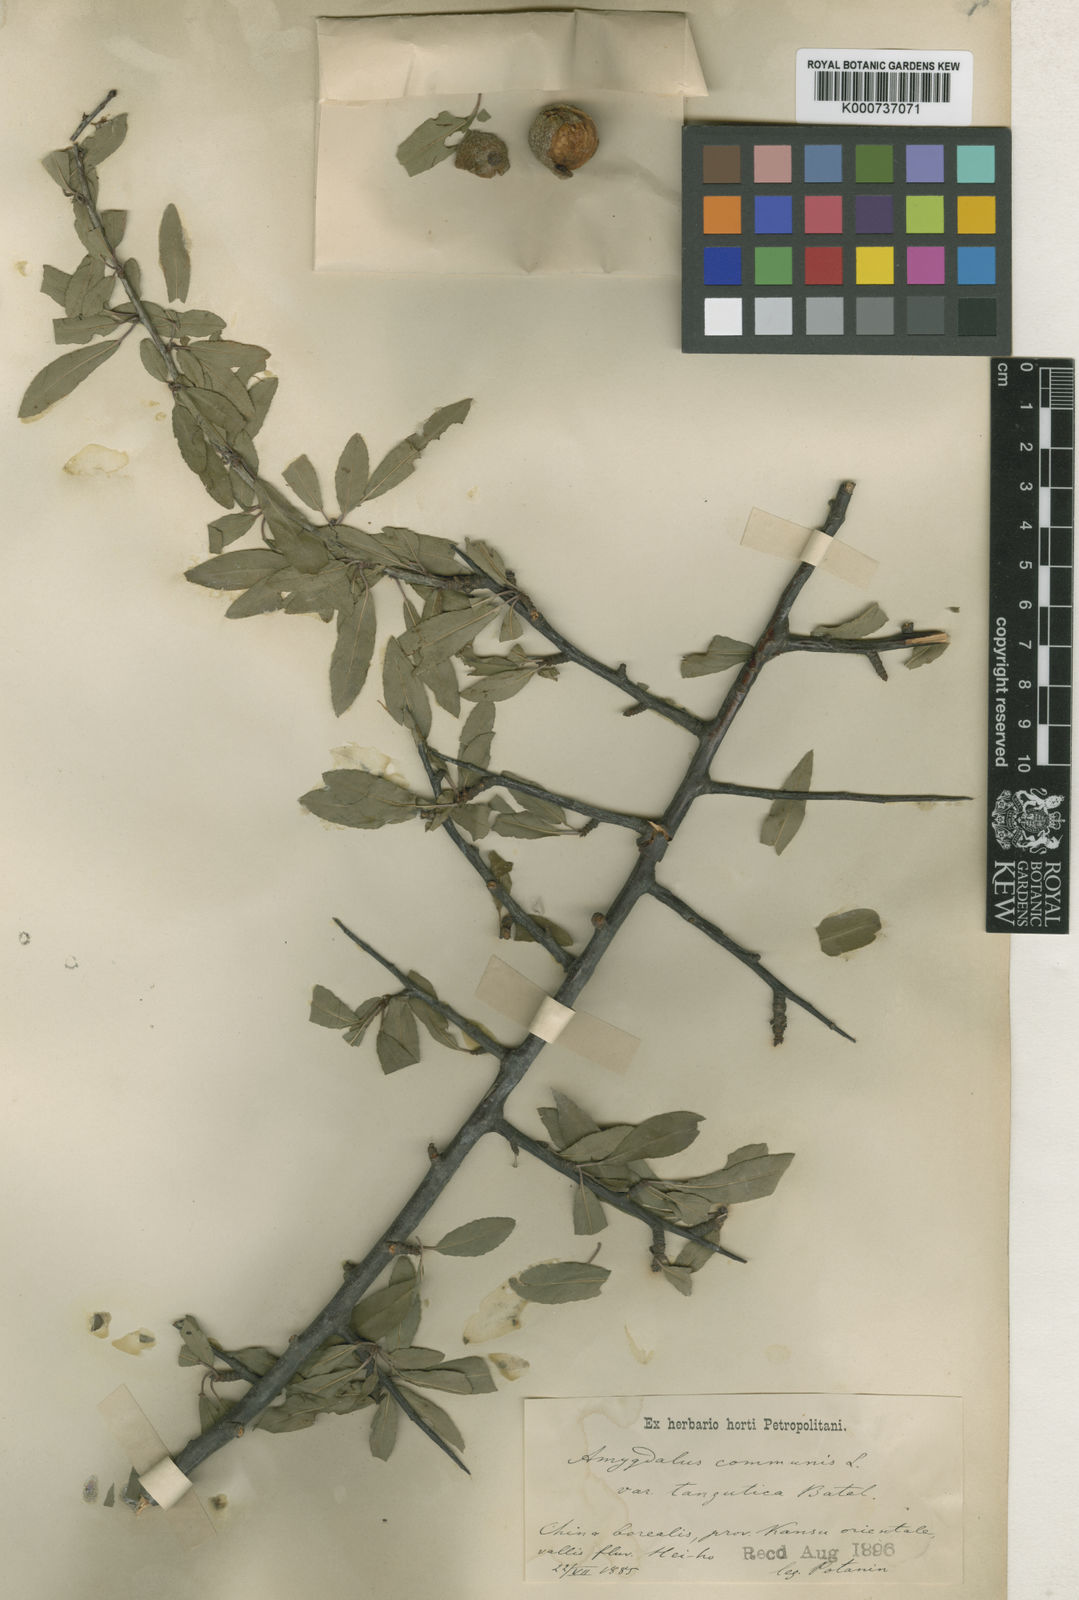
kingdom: Plantae
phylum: Tracheophyta
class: Magnoliopsida
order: Rosales
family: Rosaceae
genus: Prunus
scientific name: Prunus tangutica
